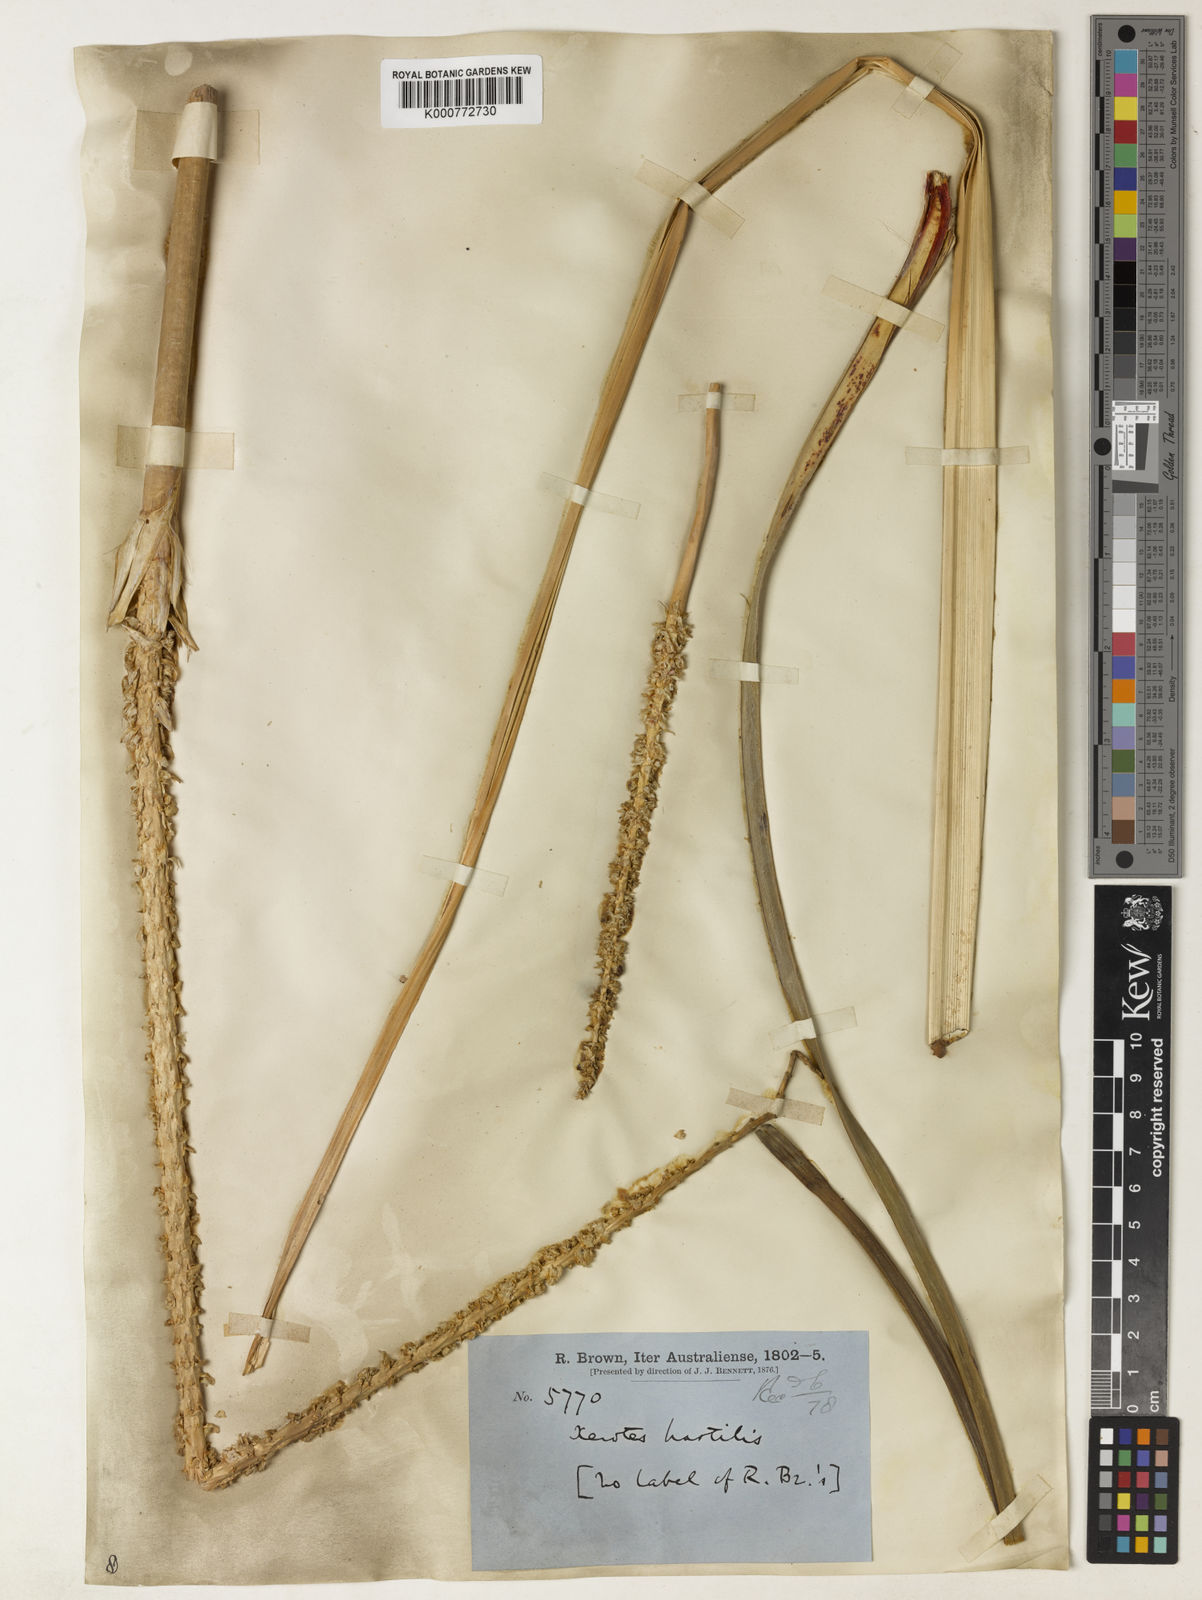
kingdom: Plantae
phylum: Tracheophyta
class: Liliopsida
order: Asparagales
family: Asparagaceae
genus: Lomandra
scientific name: Lomandra hastilis
